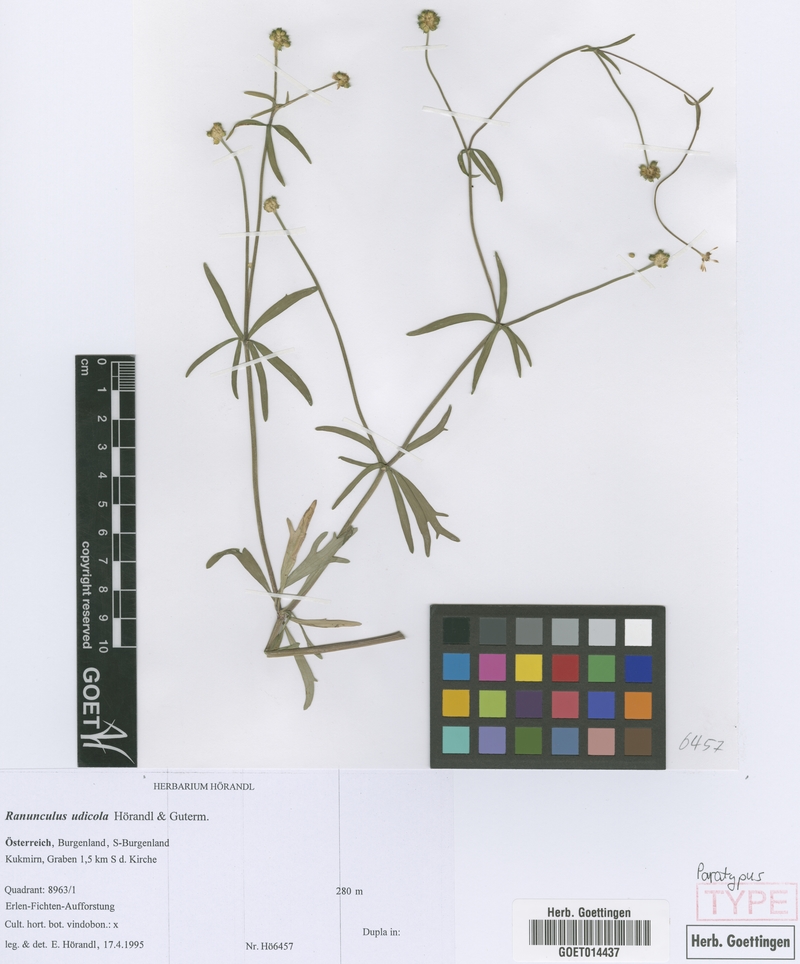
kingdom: Plantae
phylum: Tracheophyta
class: Magnoliopsida
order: Ranunculales
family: Ranunculaceae
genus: Ranunculus
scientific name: Ranunculus udicola
